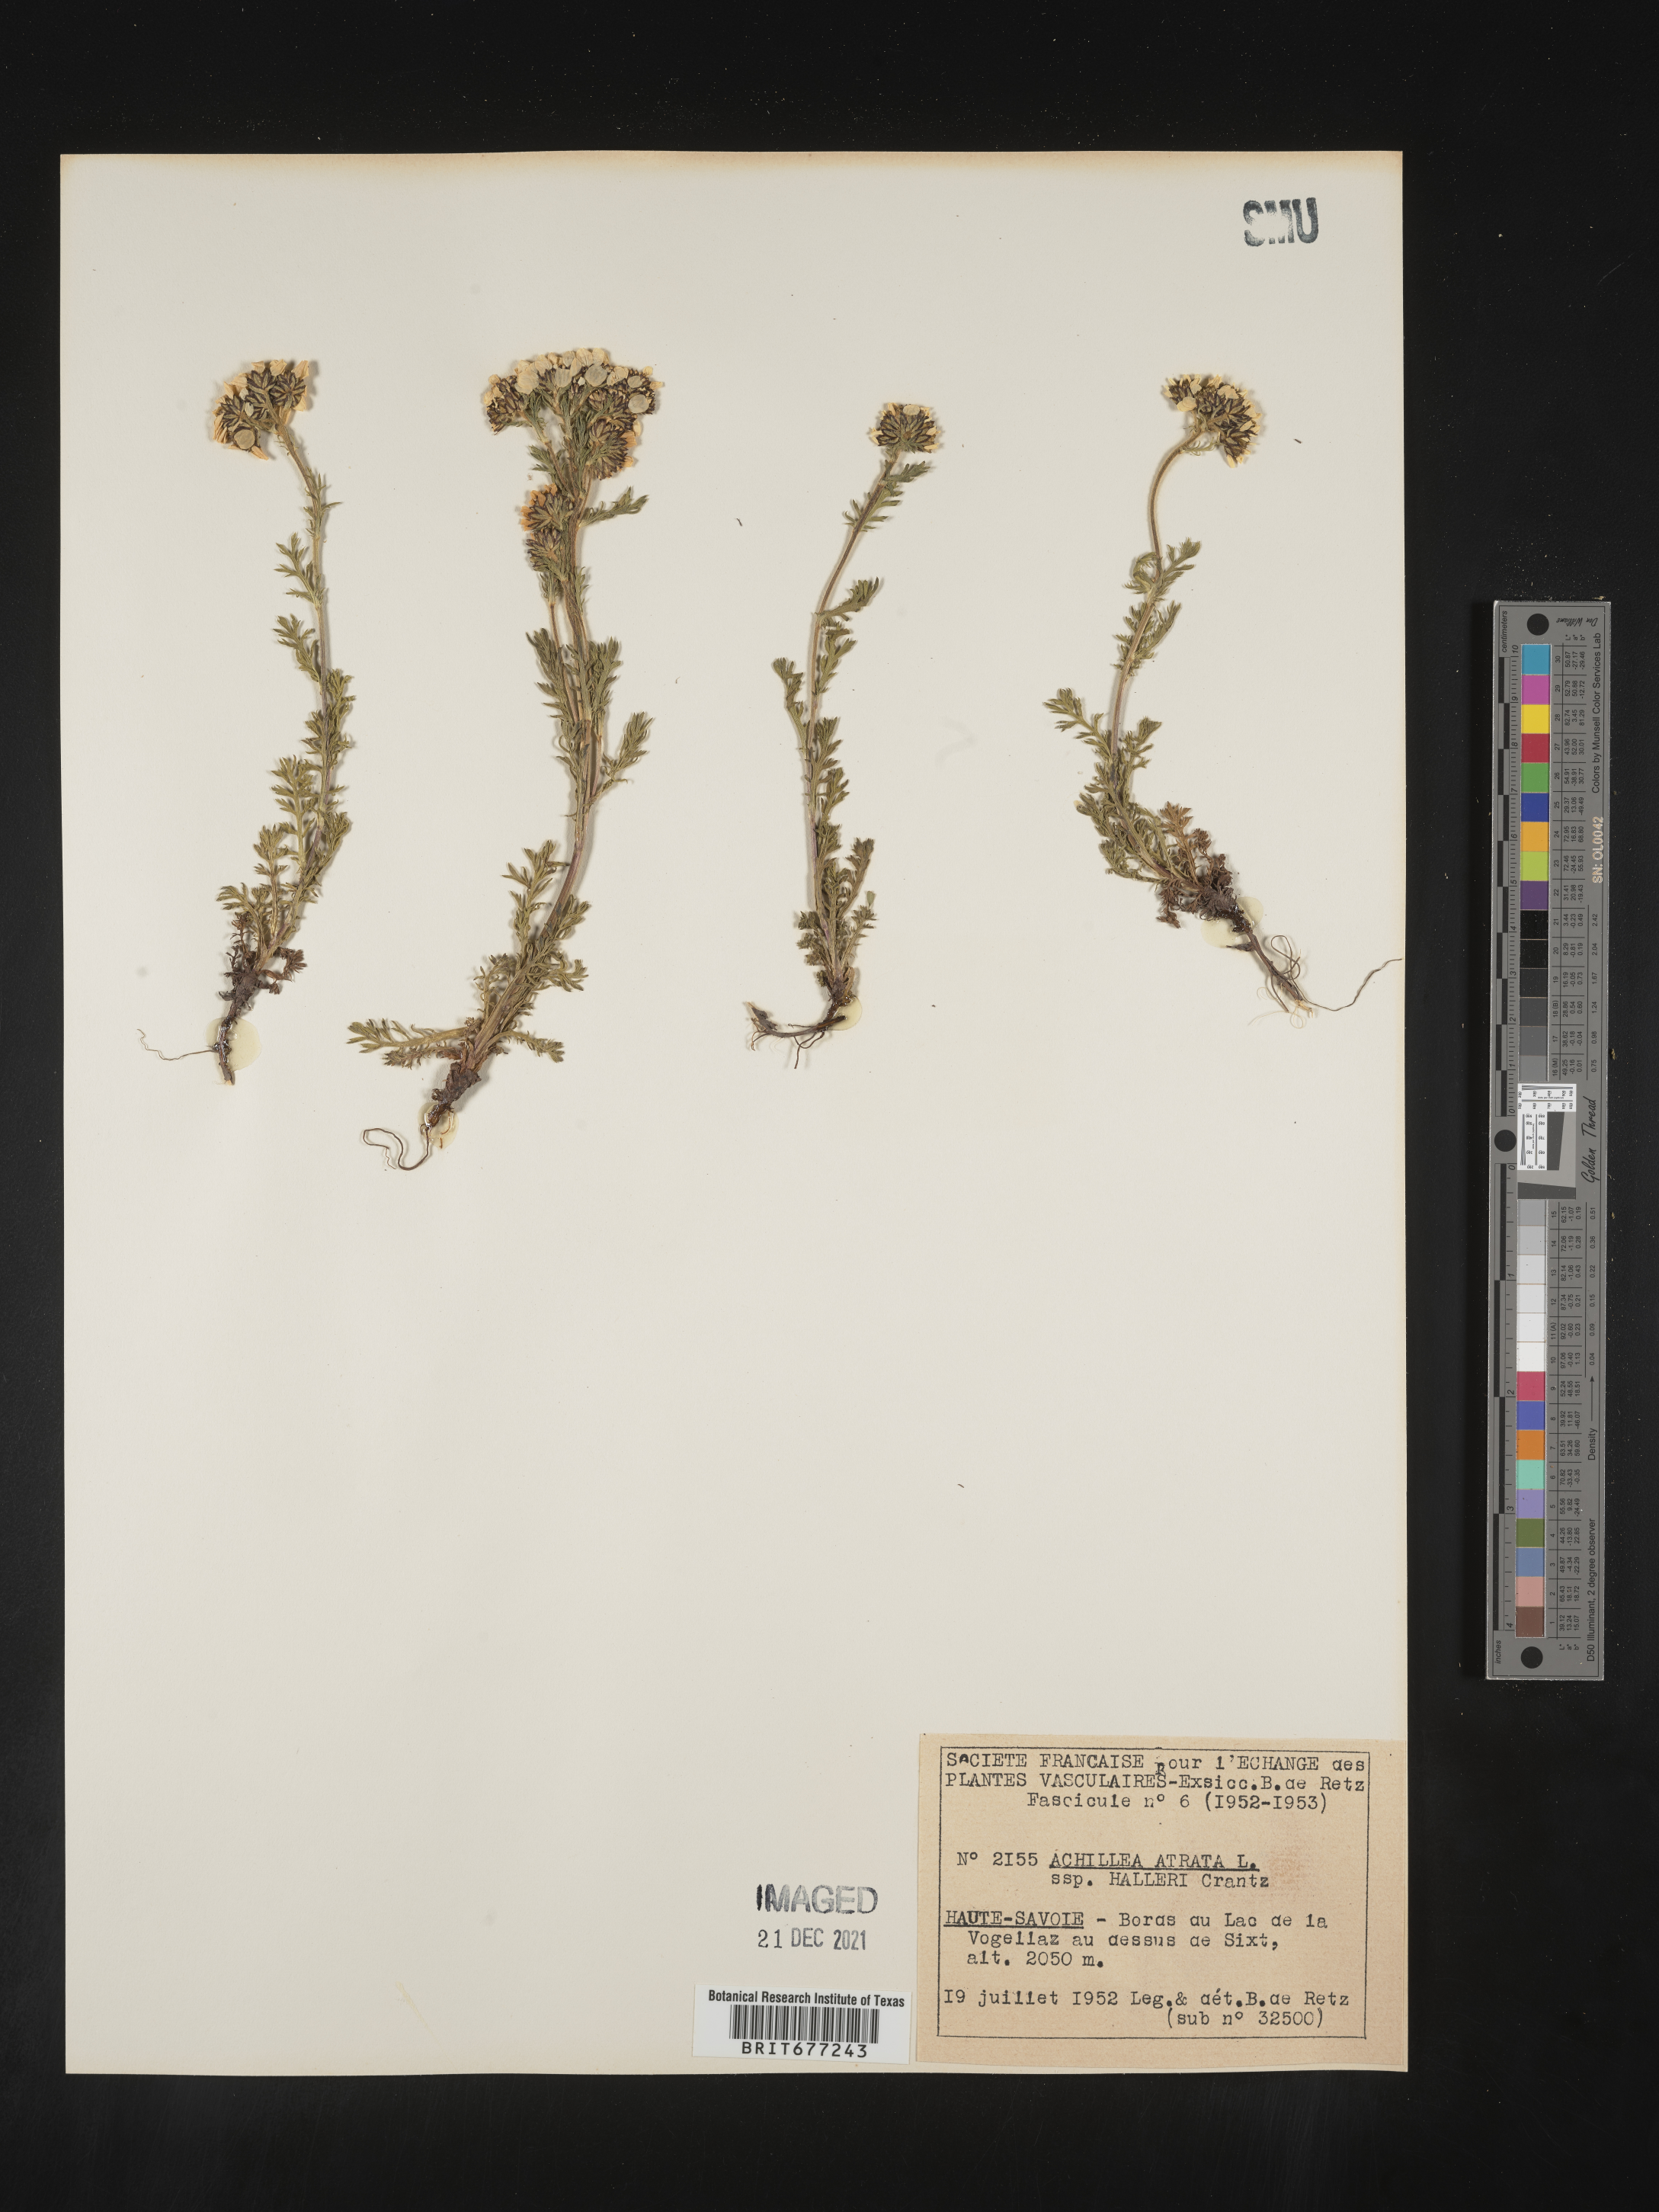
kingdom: Plantae
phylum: Tracheophyta
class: Magnoliopsida
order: Asterales
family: Asteraceae
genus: Achillea
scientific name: Achillea
